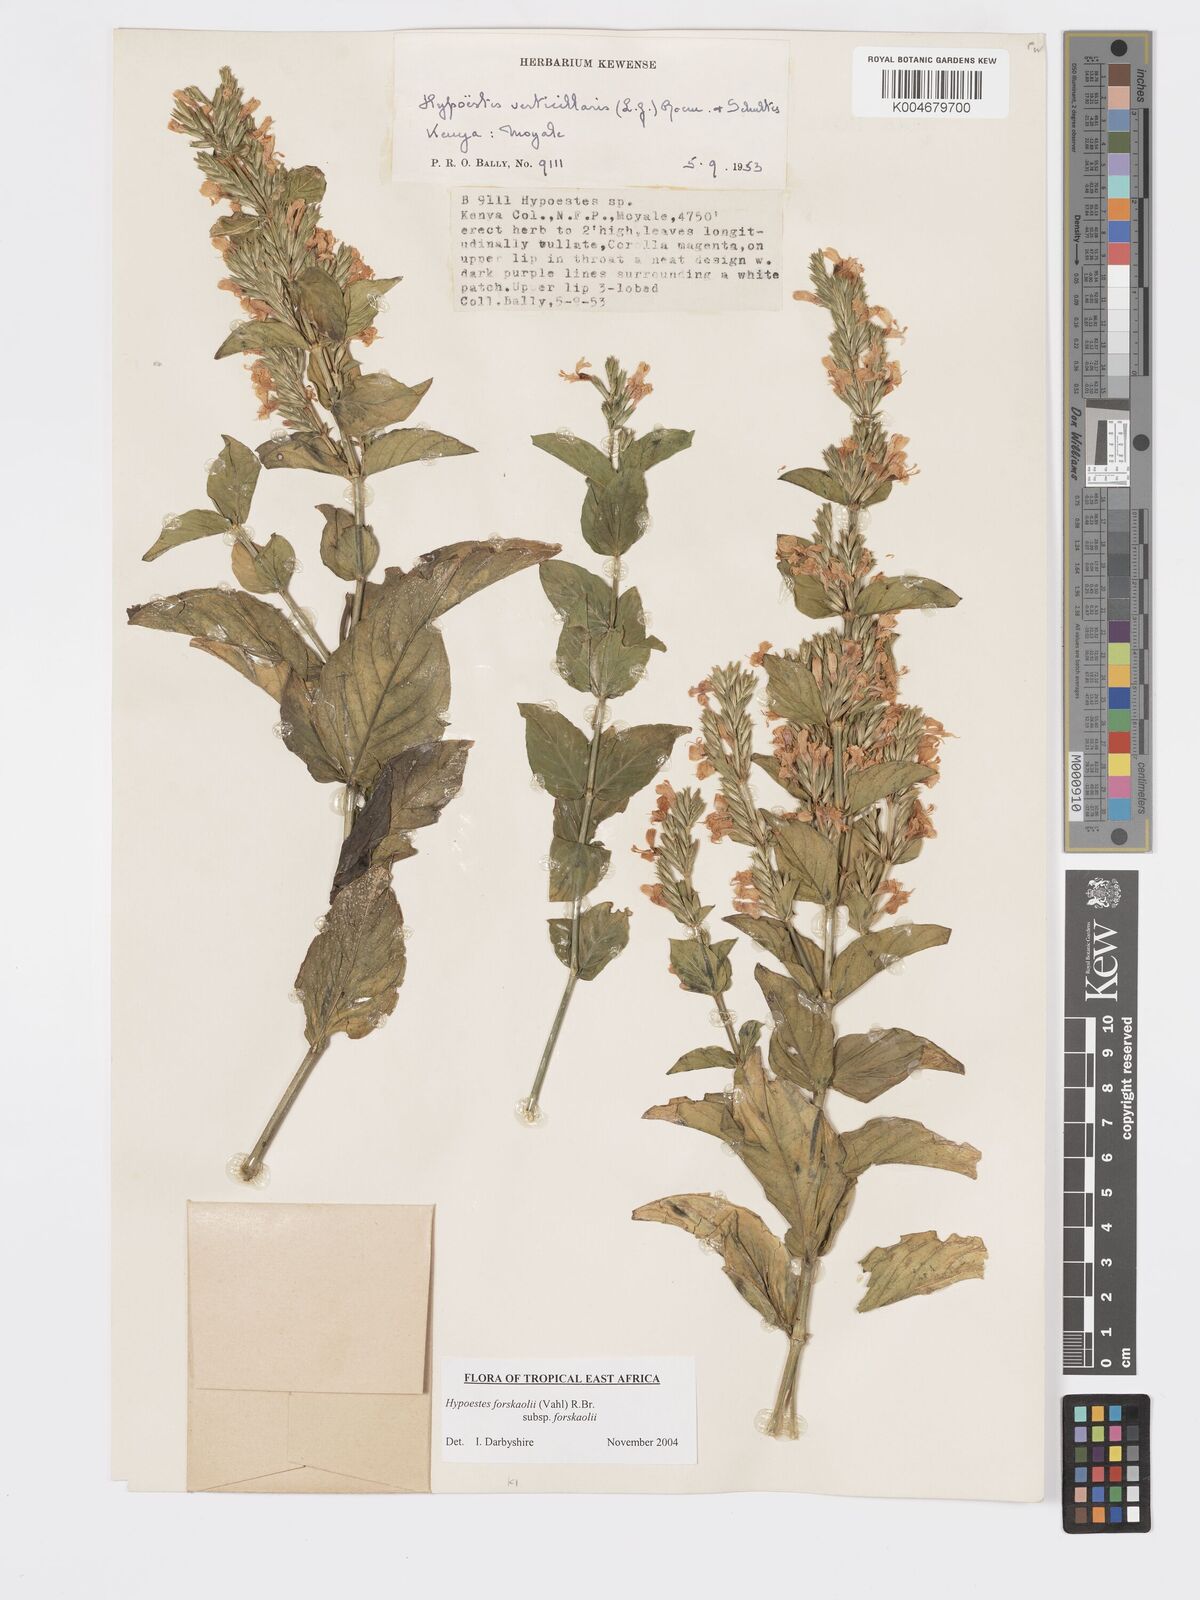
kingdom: Plantae
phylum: Tracheophyta
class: Magnoliopsida
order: Lamiales
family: Acanthaceae
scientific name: Acanthaceae
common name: Acanthaceae
